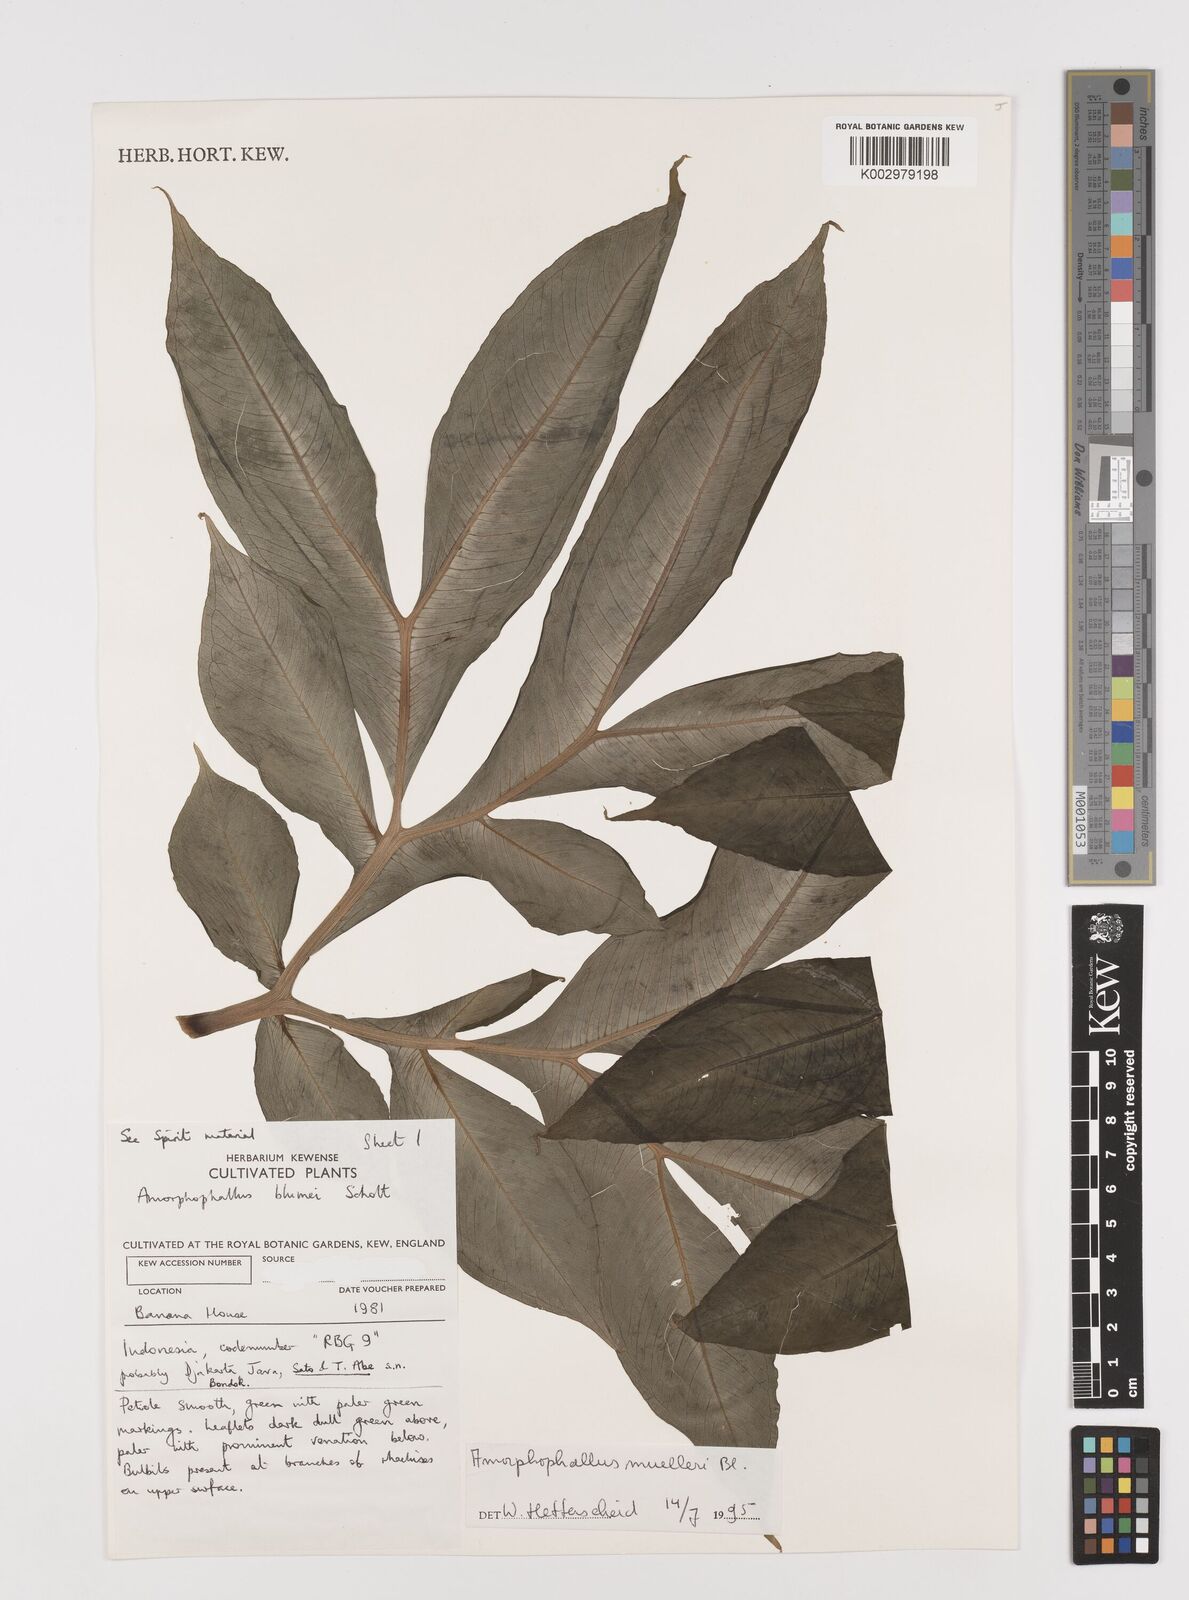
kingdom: Plantae
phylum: Tracheophyta
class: Liliopsida
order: Alismatales
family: Araceae
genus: Amorphophallus
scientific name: Amorphophallus muelleri
